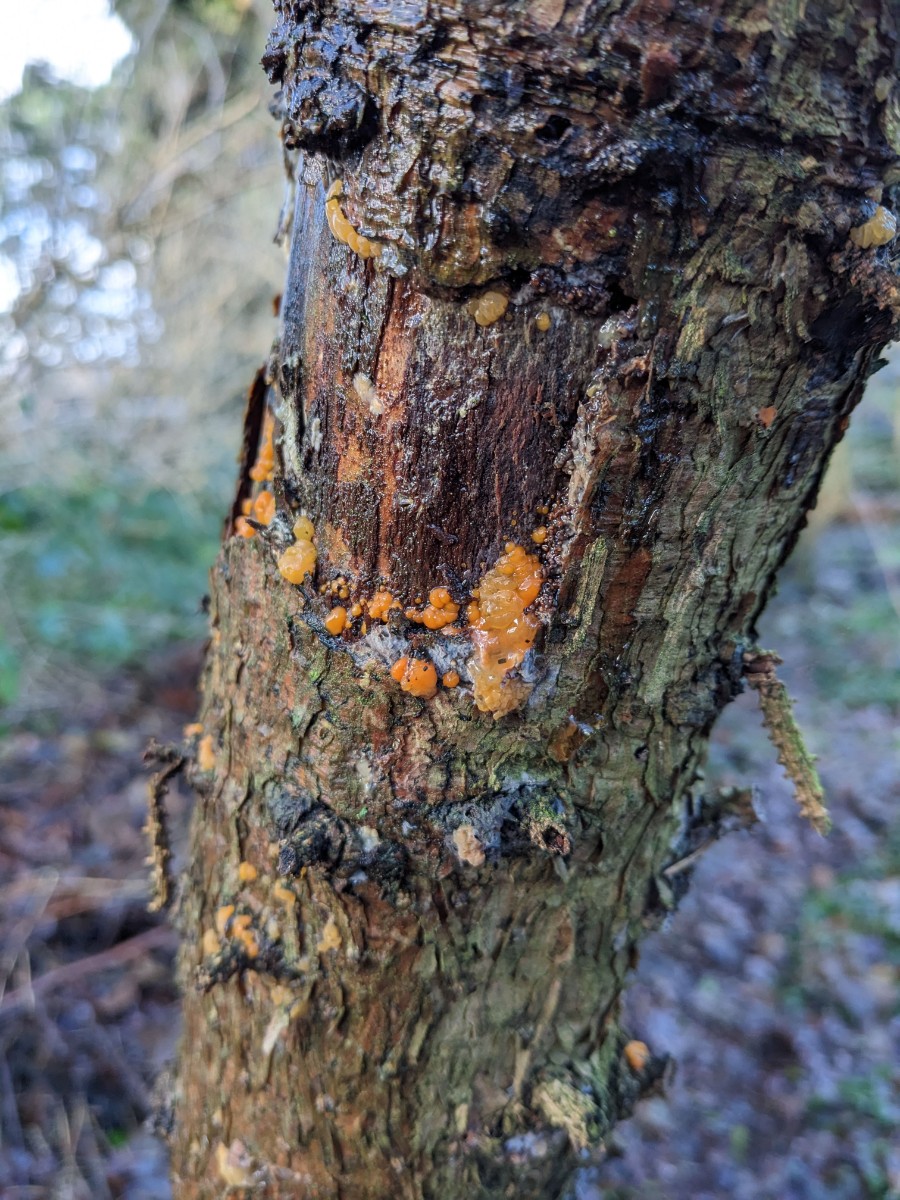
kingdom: Fungi
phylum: Basidiomycota
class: Dacrymycetes
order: Dacrymycetales
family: Dacrymycetaceae
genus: Dacrymyces
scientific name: Dacrymyces stillatus
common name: almindelig tåresvamp
